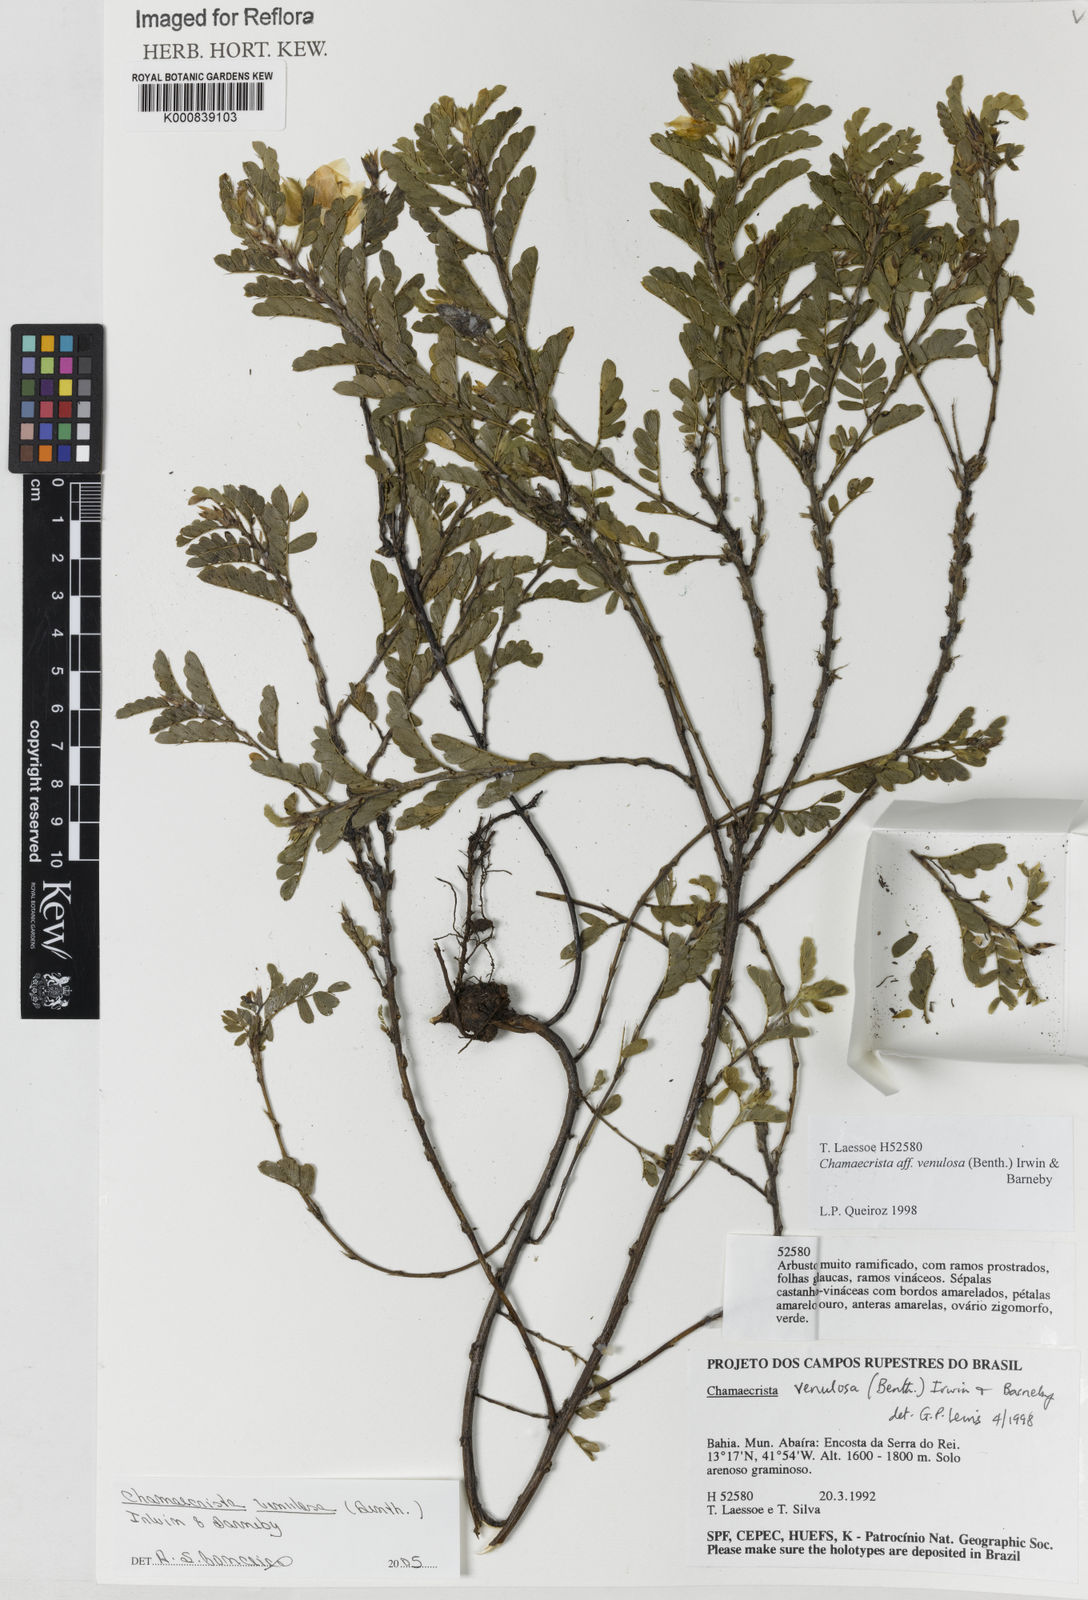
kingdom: Plantae
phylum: Tracheophyta
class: Magnoliopsida
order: Fabales
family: Fabaceae
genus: Chamaecrista
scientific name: Chamaecrista venulosa
